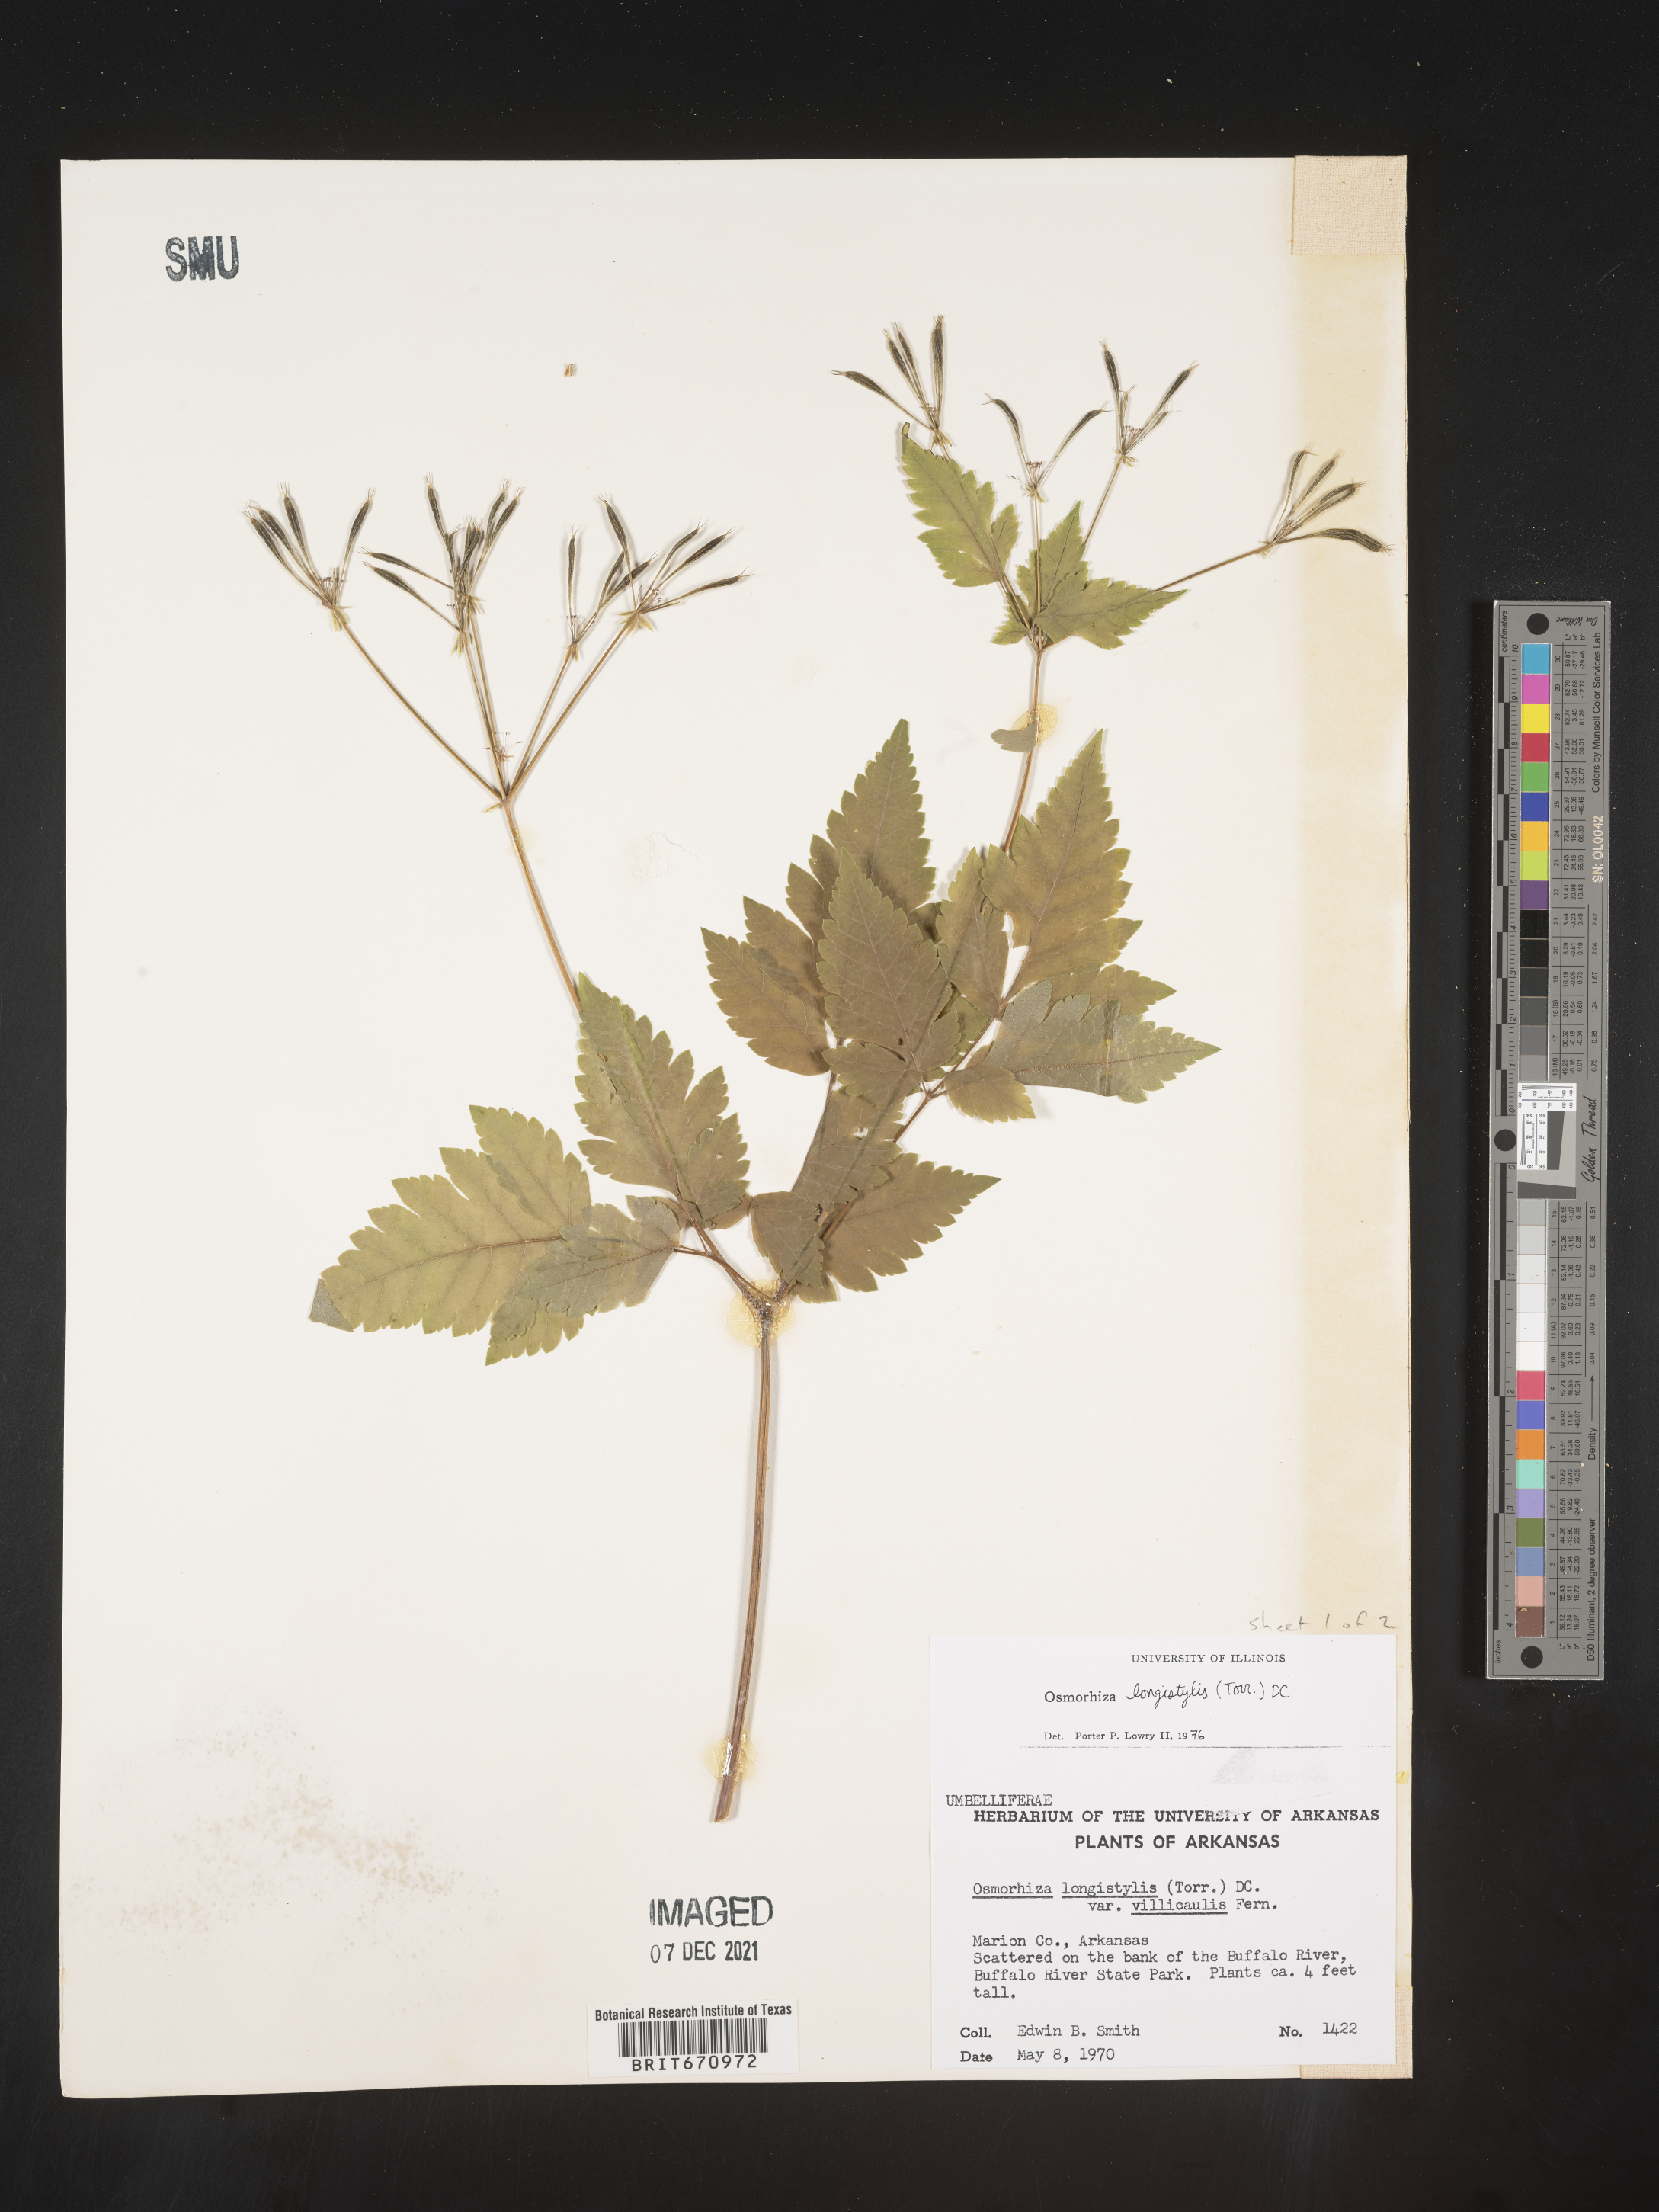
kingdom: Plantae
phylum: Tracheophyta
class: Magnoliopsida
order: Apiales
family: Apiaceae
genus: Osmorhiza
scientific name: Osmorhiza longistylis
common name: Smooth sweet cicely
